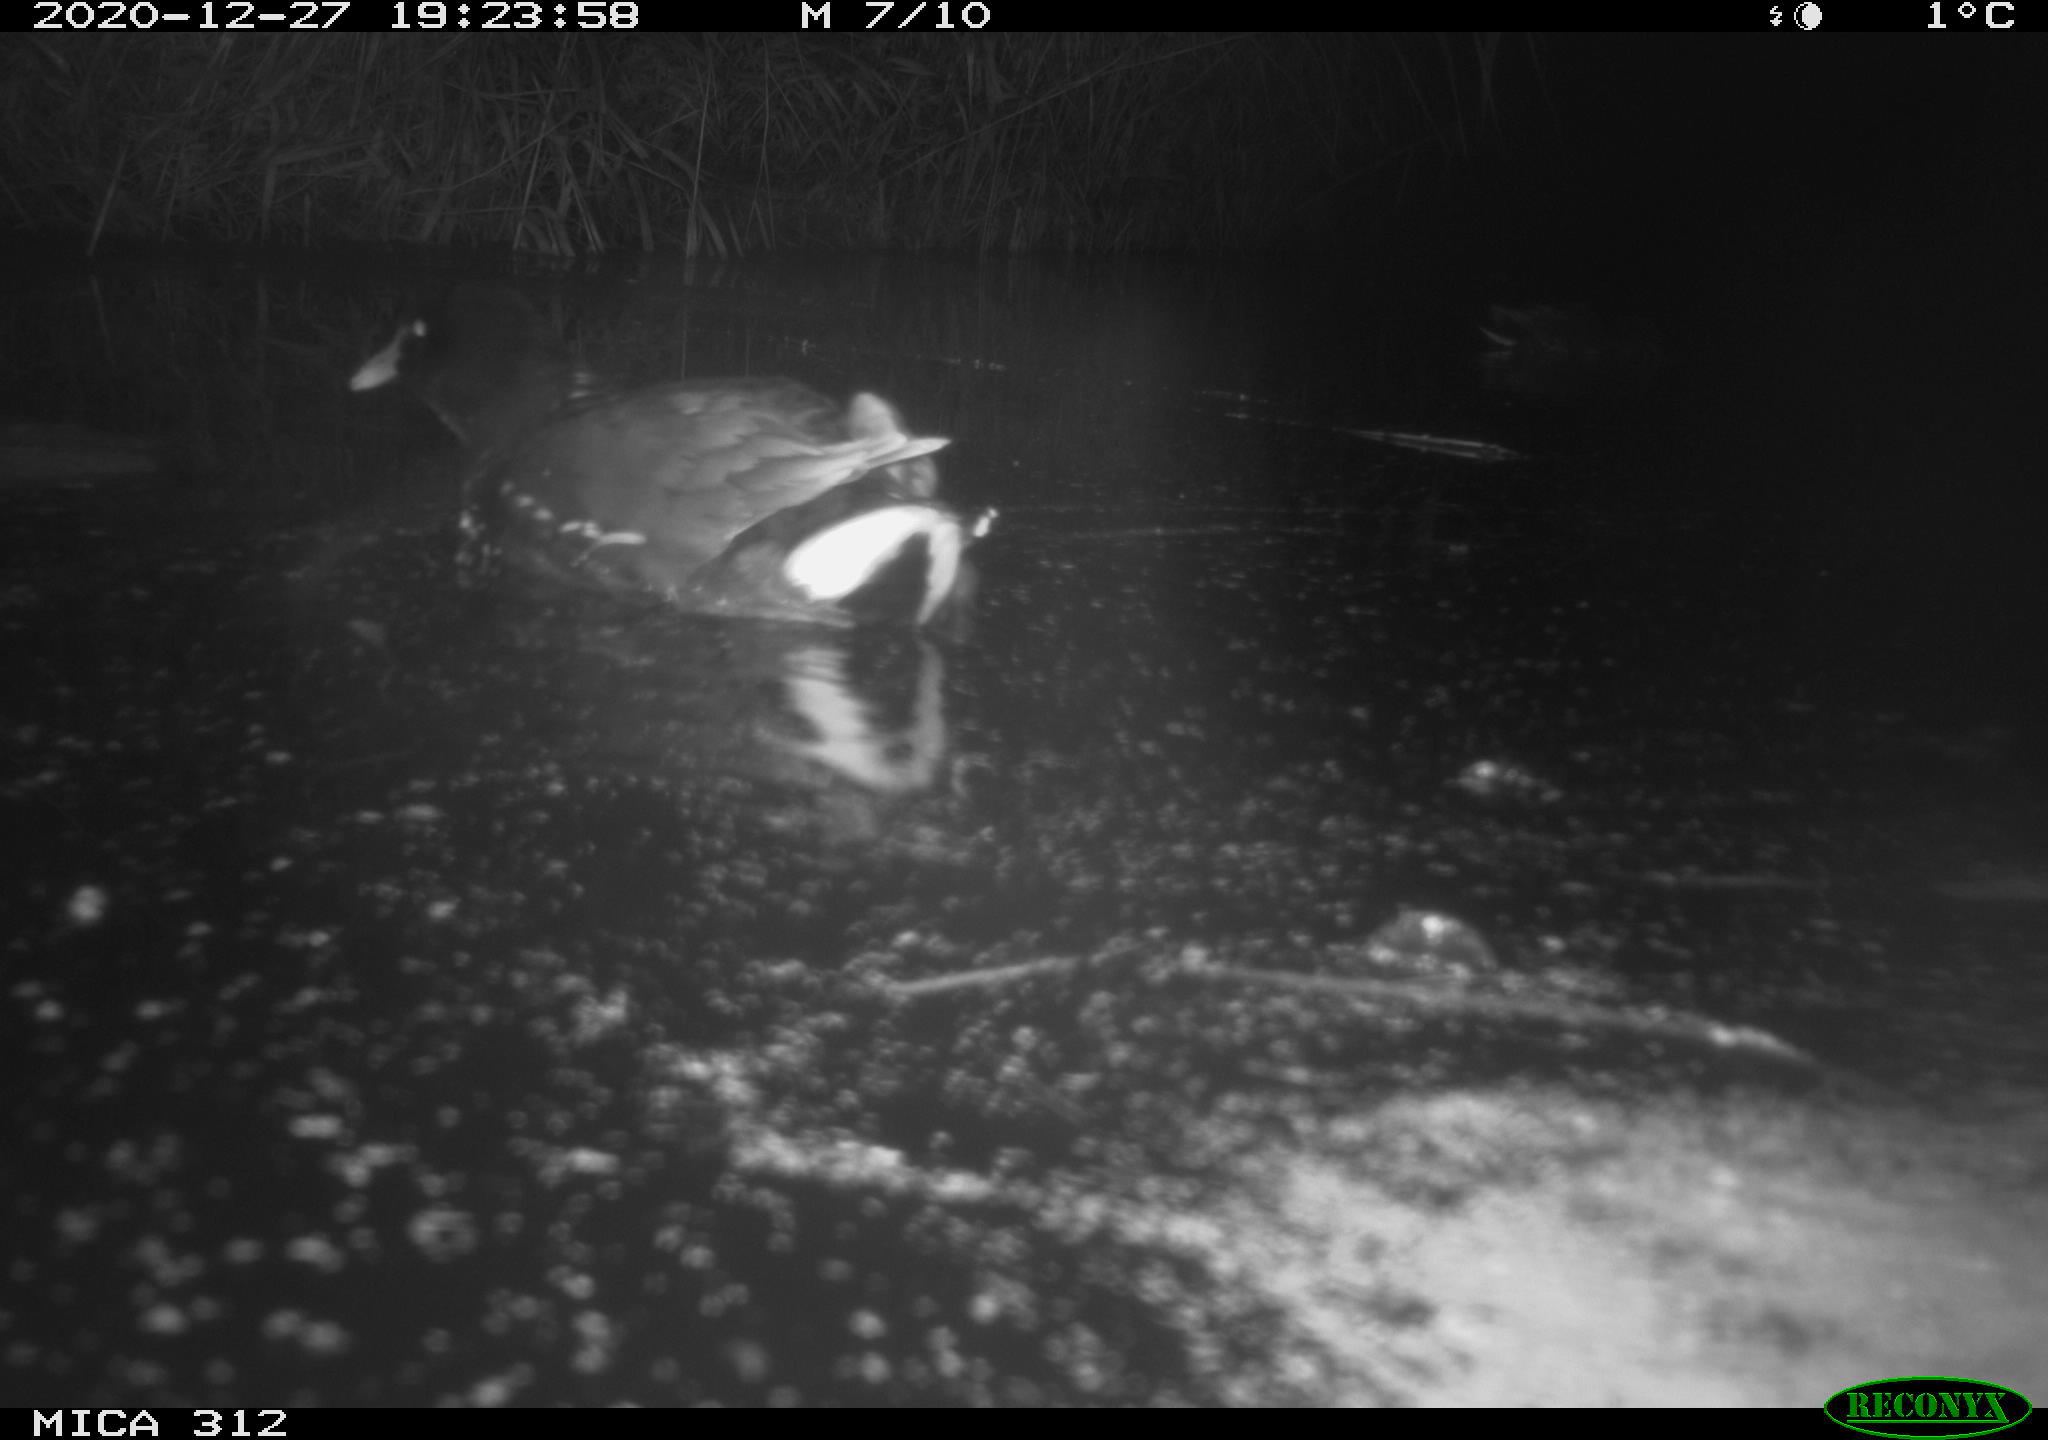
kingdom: Animalia
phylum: Chordata
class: Aves
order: Gruiformes
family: Rallidae
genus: Gallinula
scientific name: Gallinula chloropus
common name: Common moorhen
